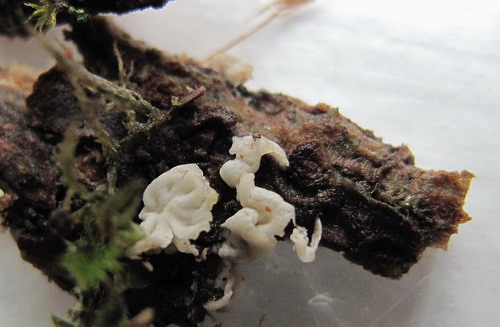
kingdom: Fungi
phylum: Basidiomycota
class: Agaricomycetes
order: Agaricales
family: Marasmiaceae
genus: Calyptella
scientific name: Calyptella cernua
